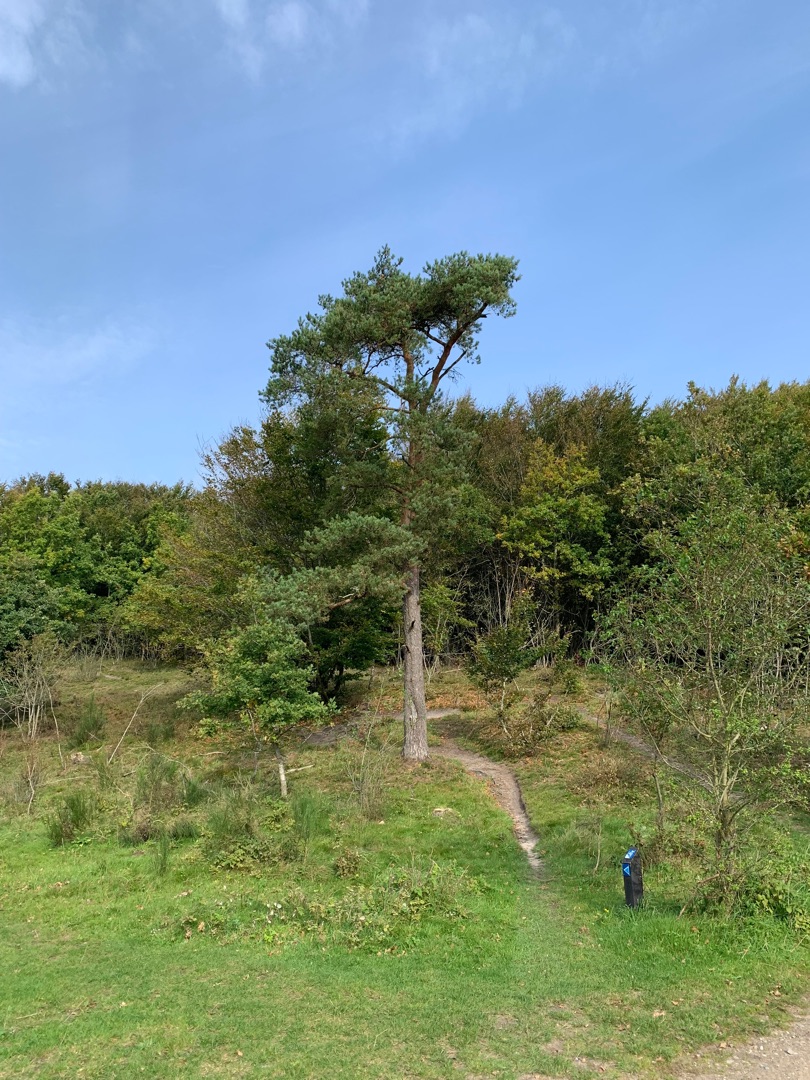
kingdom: Plantae
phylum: Tracheophyta
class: Pinopsida
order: Pinales
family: Pinaceae
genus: Pinus
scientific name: Pinus sylvestris
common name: Skov-fyr
